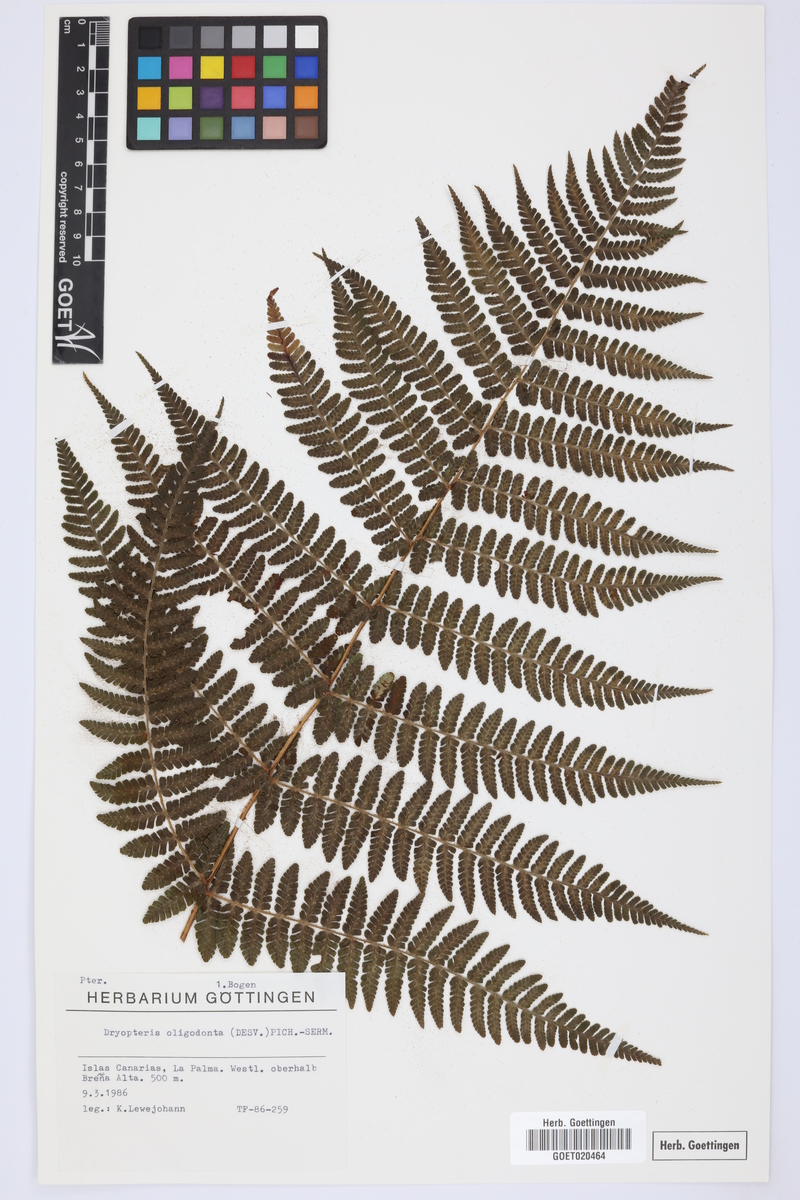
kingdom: Plantae
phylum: Tracheophyta
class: Polypodiopsida
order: Polypodiales
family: Dryopteridaceae
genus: Dryopteris
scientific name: Dryopteris oligodonta
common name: Canarian male-fern
